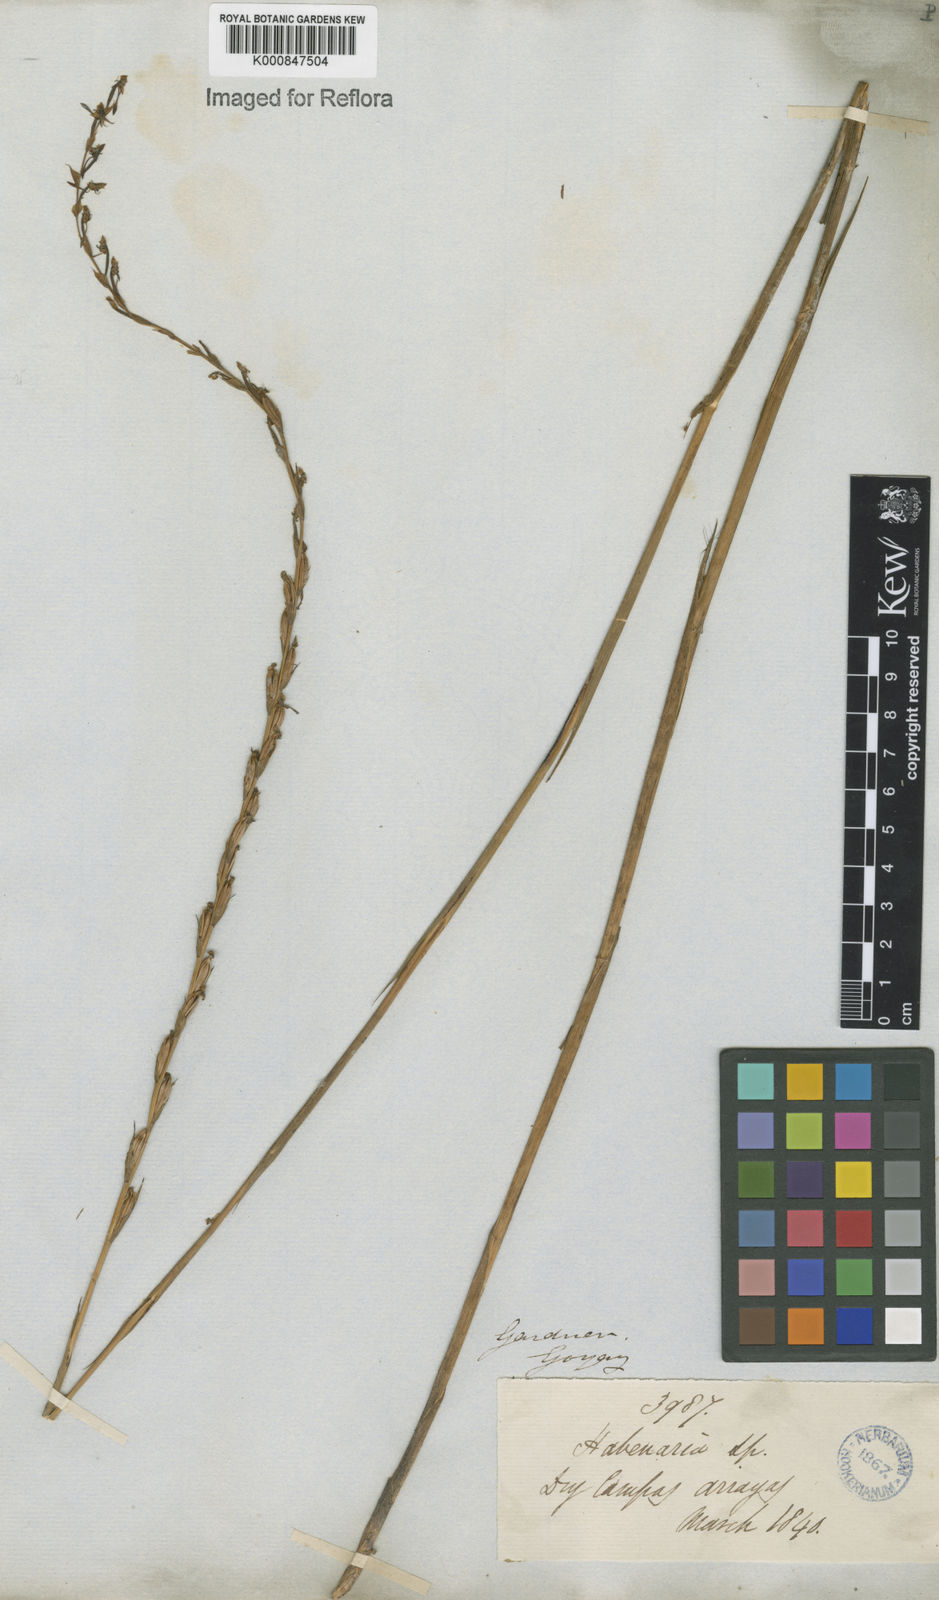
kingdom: Plantae
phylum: Tracheophyta
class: Liliopsida
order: Asparagales
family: Orchidaceae
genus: Habenaria
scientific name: Habenaria
